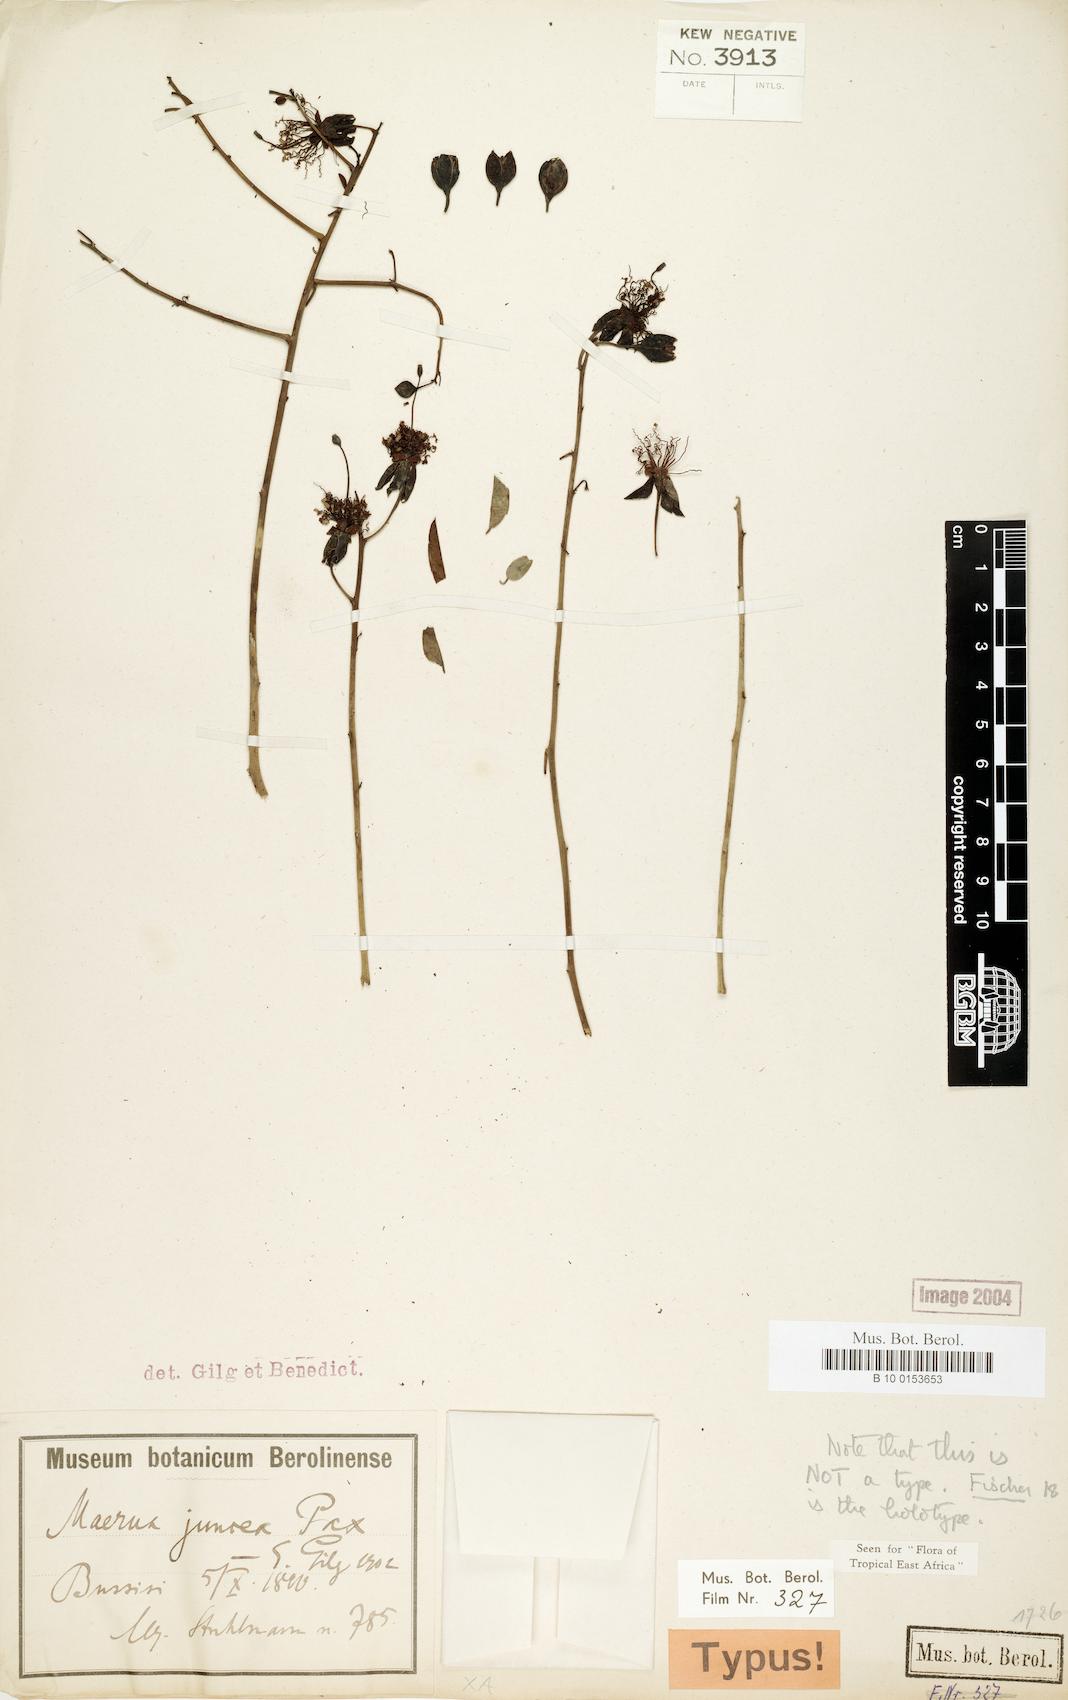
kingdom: Plantae
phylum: Tracheophyta
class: Magnoliopsida
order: Brassicales
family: Capparaceae
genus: Maerua
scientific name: Maerua juncea
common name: Rough-skinned bush cherry
